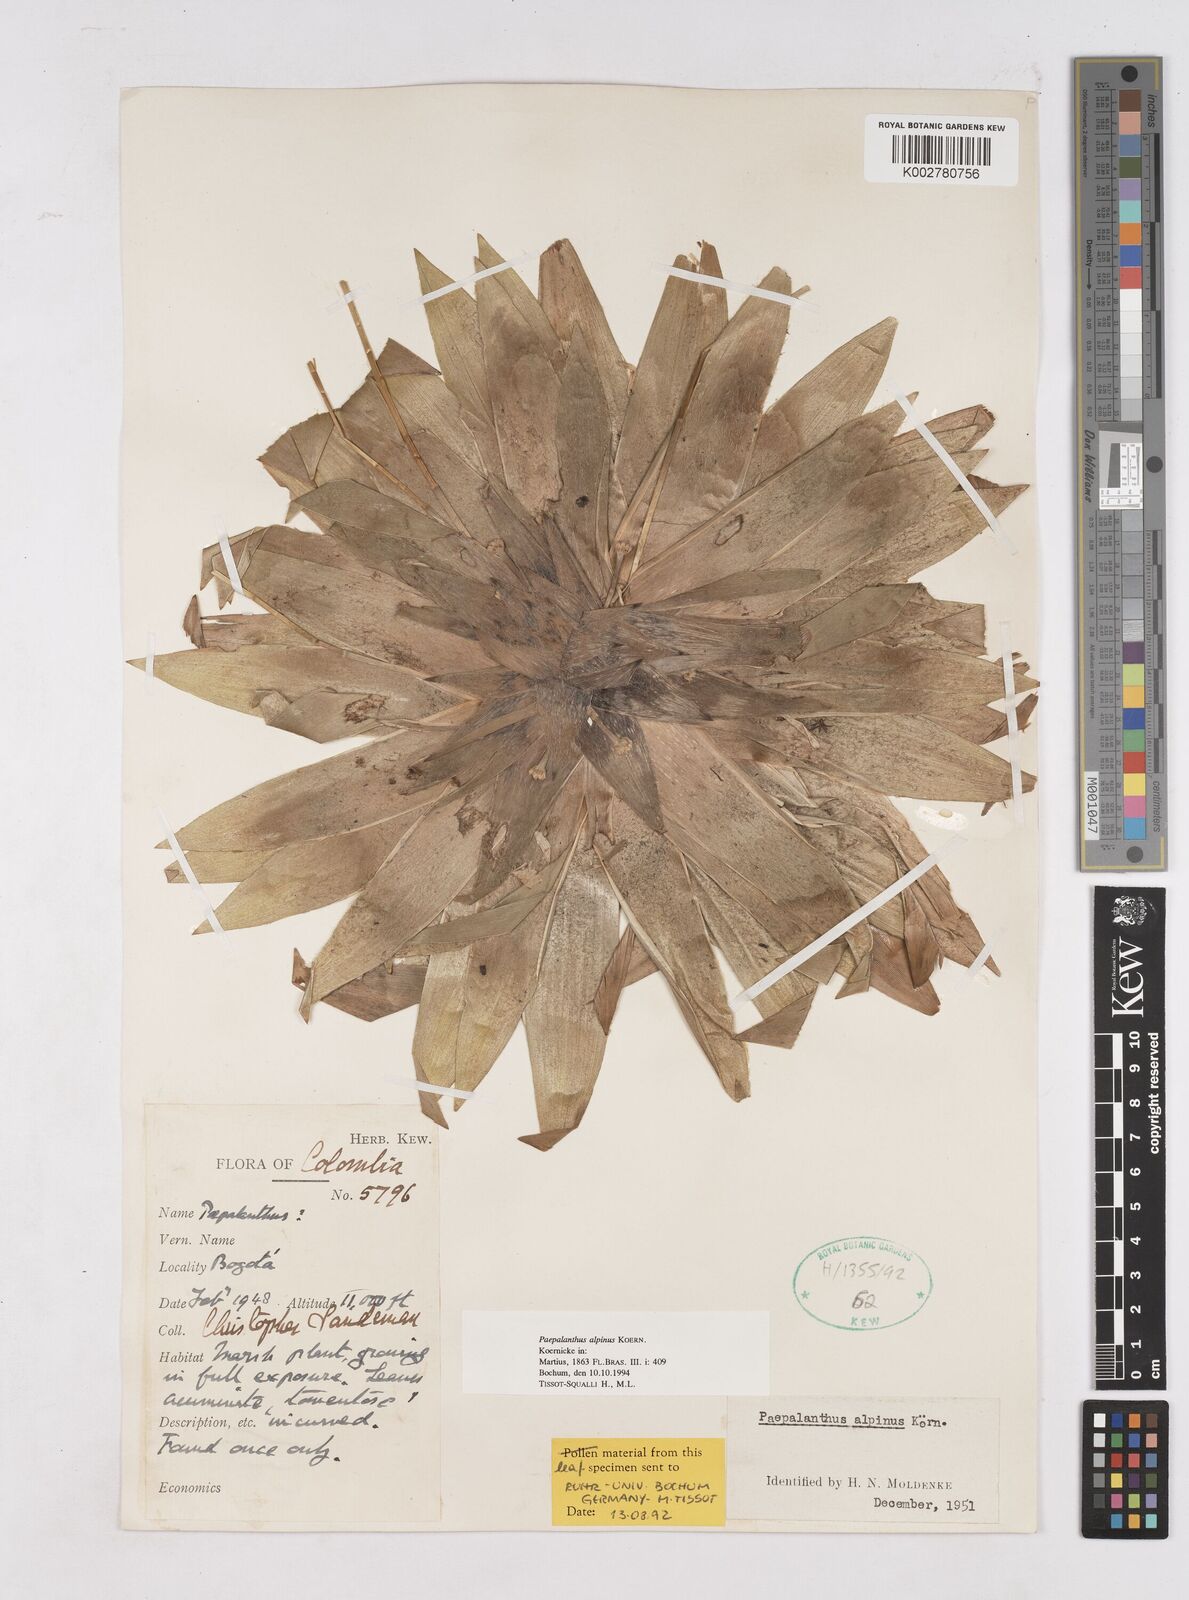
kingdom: Plantae
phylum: Tracheophyta
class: Liliopsida
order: Poales
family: Eriocaulaceae
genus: Paepalanthus
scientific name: Paepalanthus alpinus
